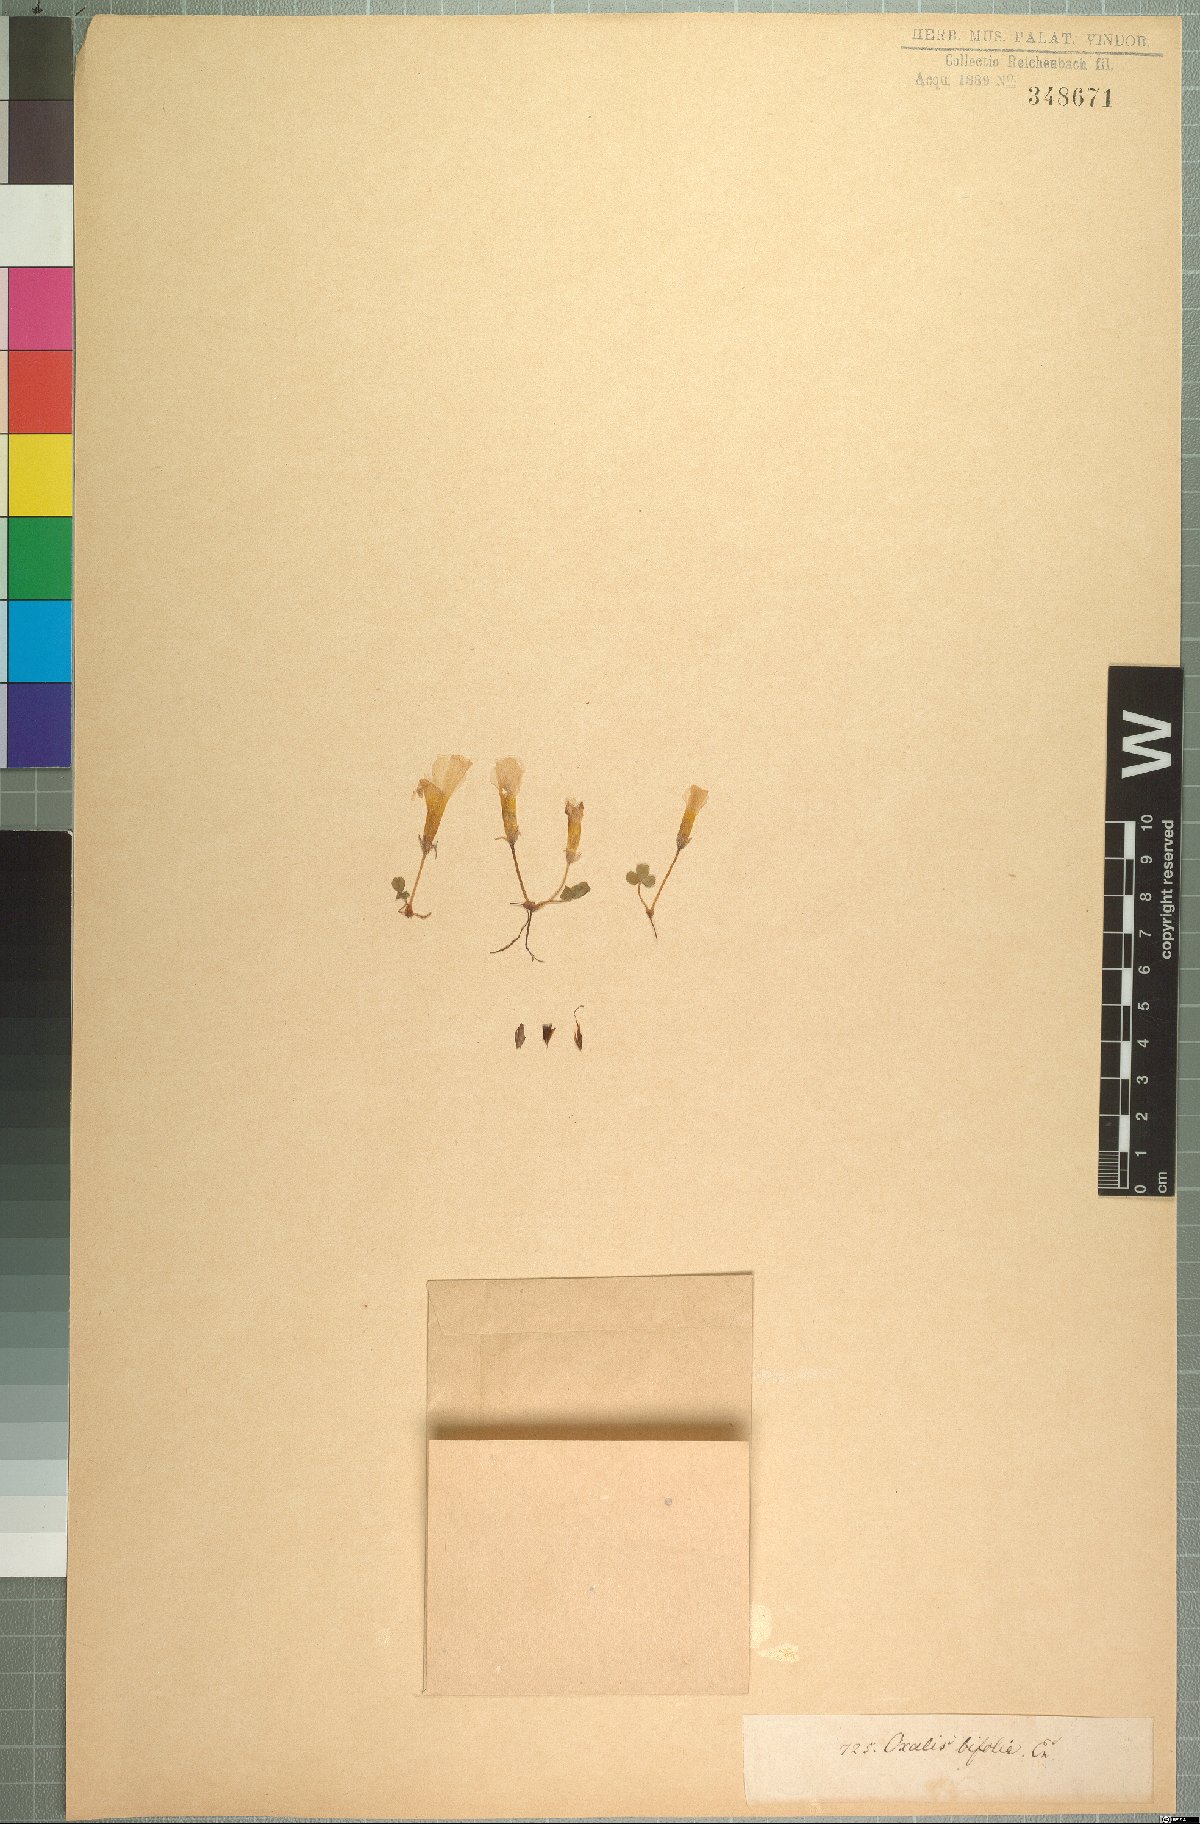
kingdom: Plantae
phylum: Tracheophyta
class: Magnoliopsida
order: Oxalidales
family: Oxalidaceae
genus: Oxalis
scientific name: Oxalis eckloniana
